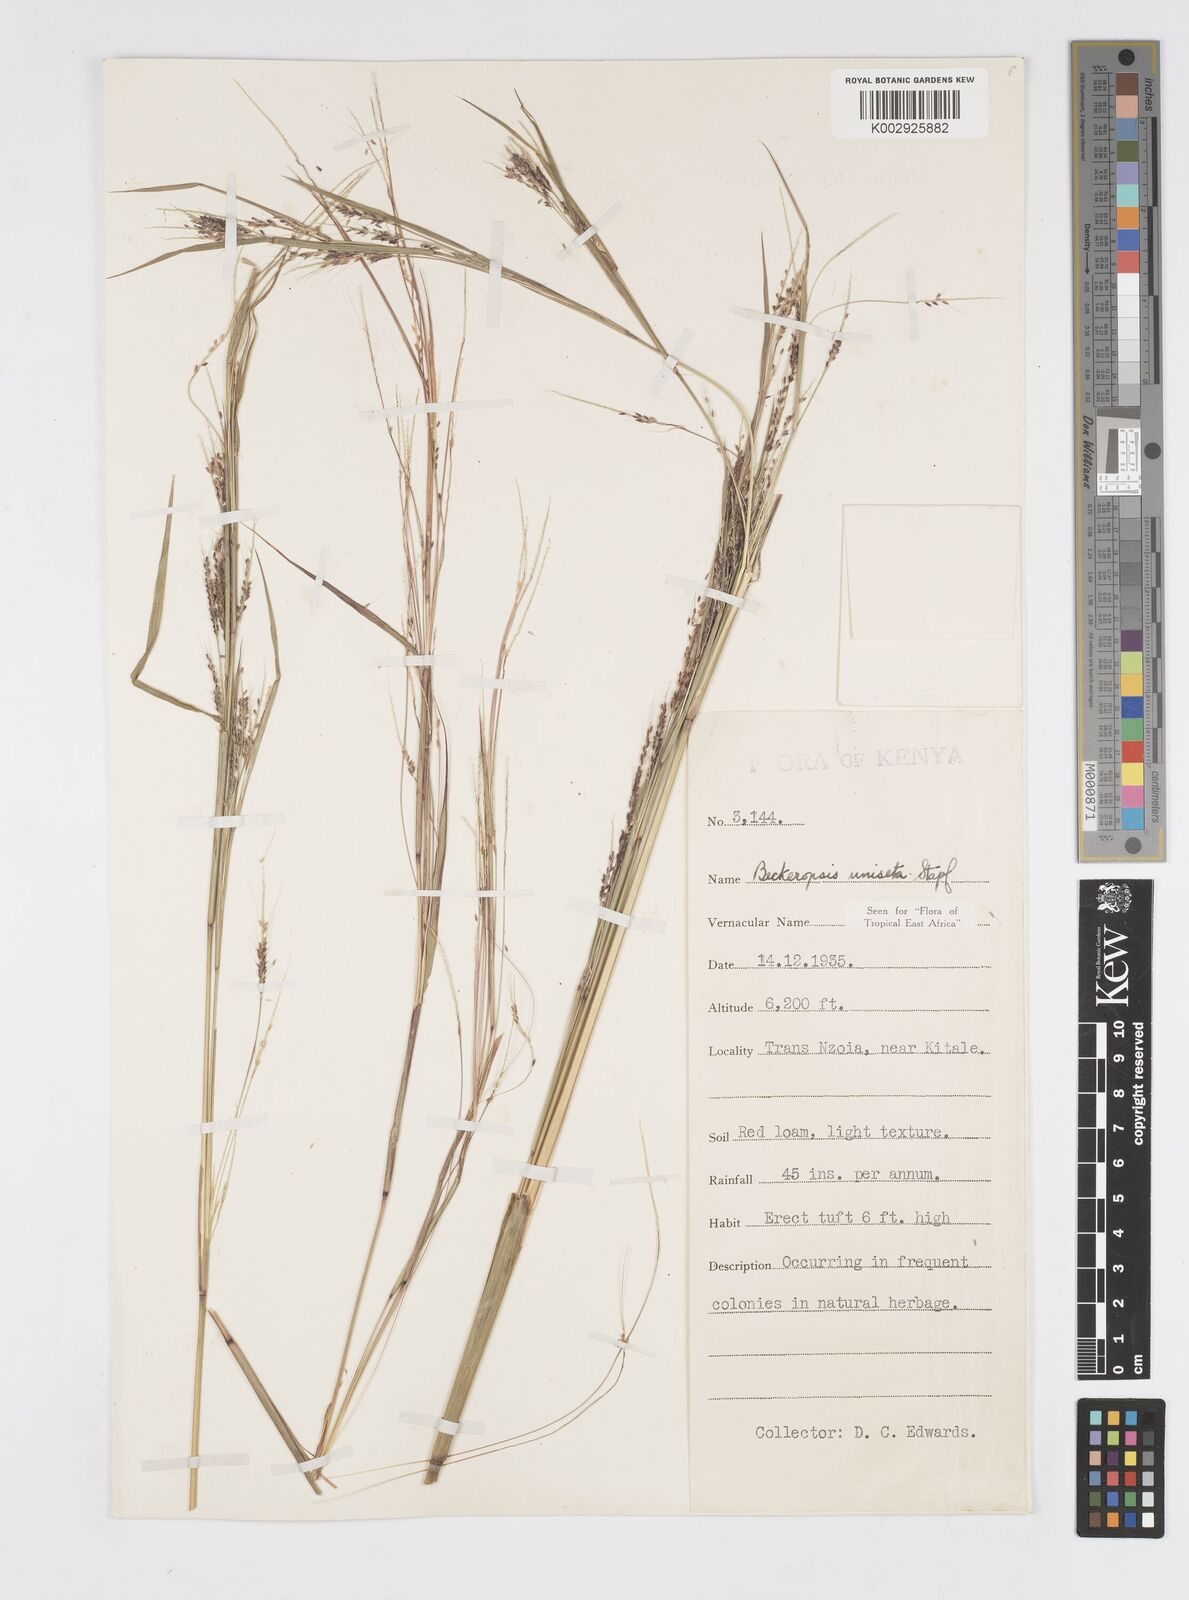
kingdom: Plantae
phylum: Tracheophyta
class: Liliopsida
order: Poales
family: Poaceae
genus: Cenchrus
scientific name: Cenchrus Pennisetum spec
